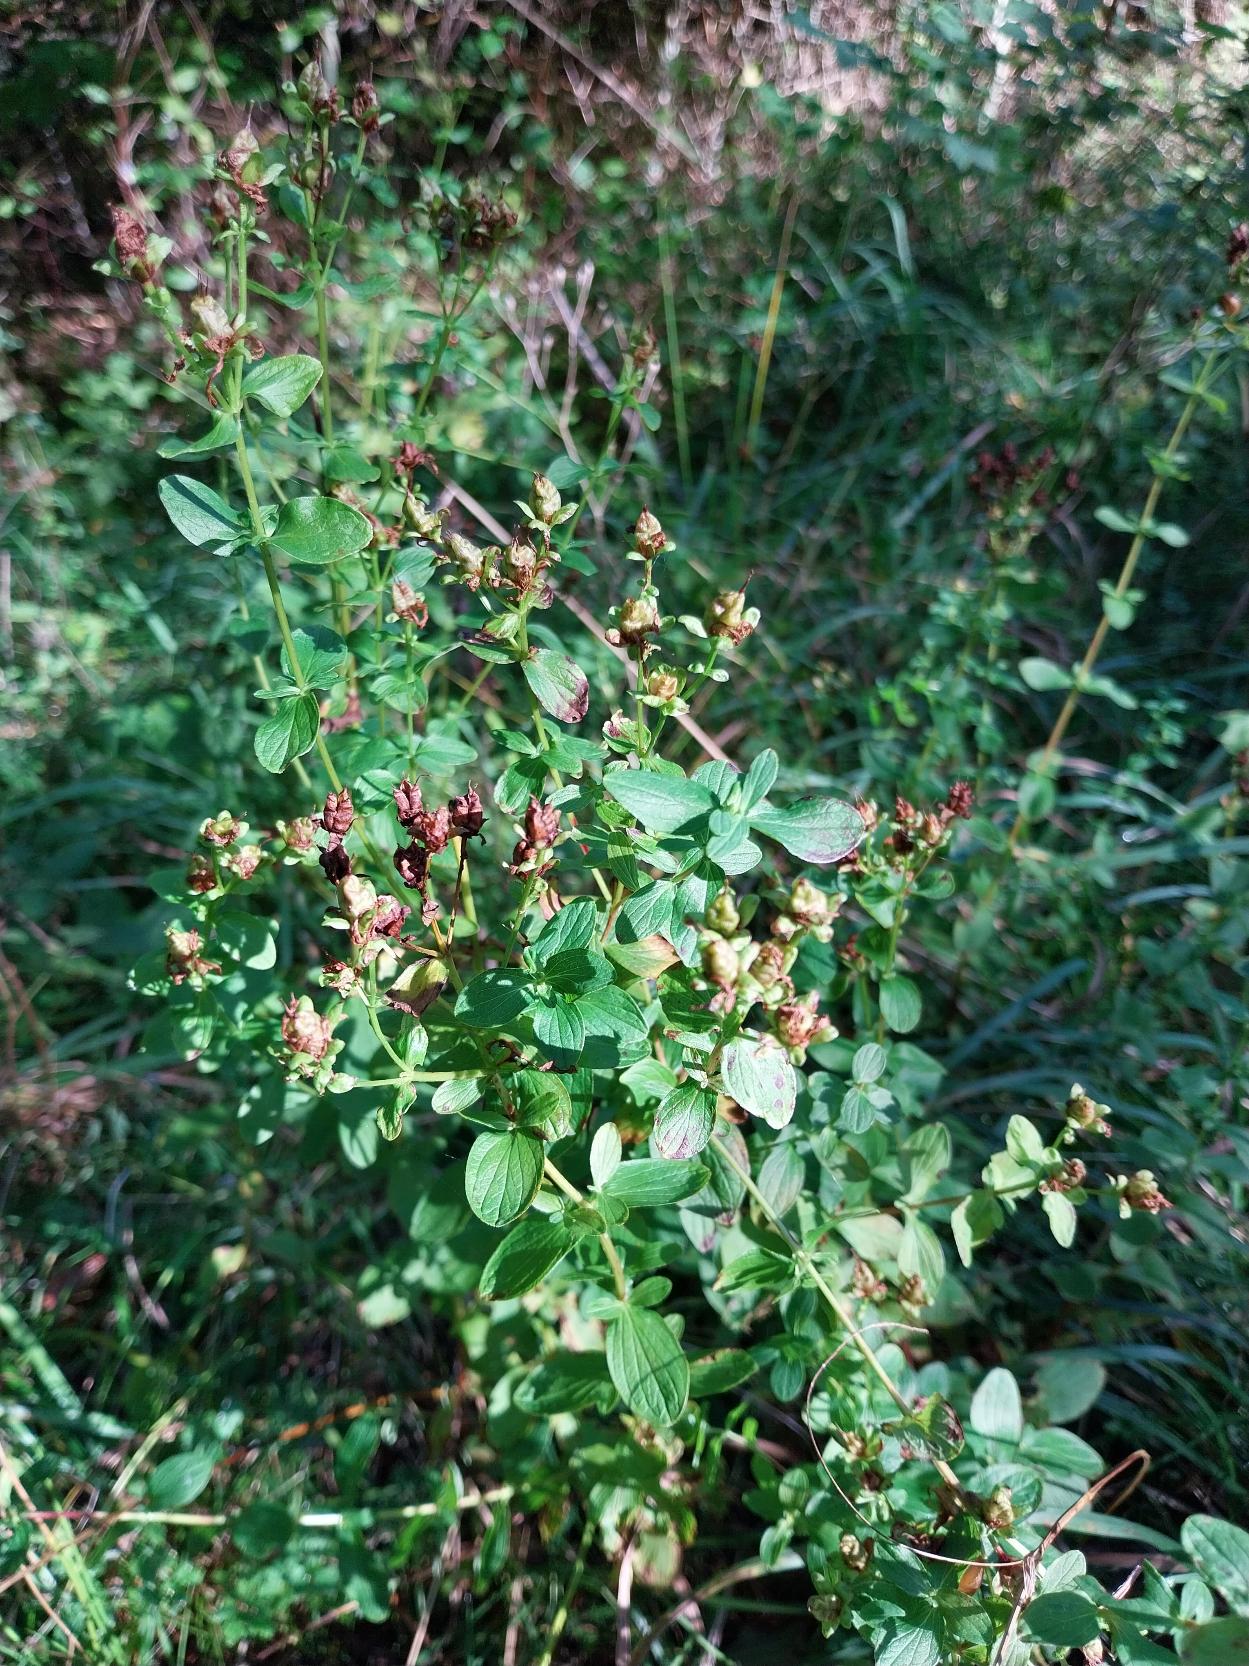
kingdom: Plantae
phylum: Tracheophyta
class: Magnoliopsida
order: Malpighiales
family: Hypericaceae
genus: Hypericum
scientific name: Hypericum maculatum
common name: Kantet perikon
